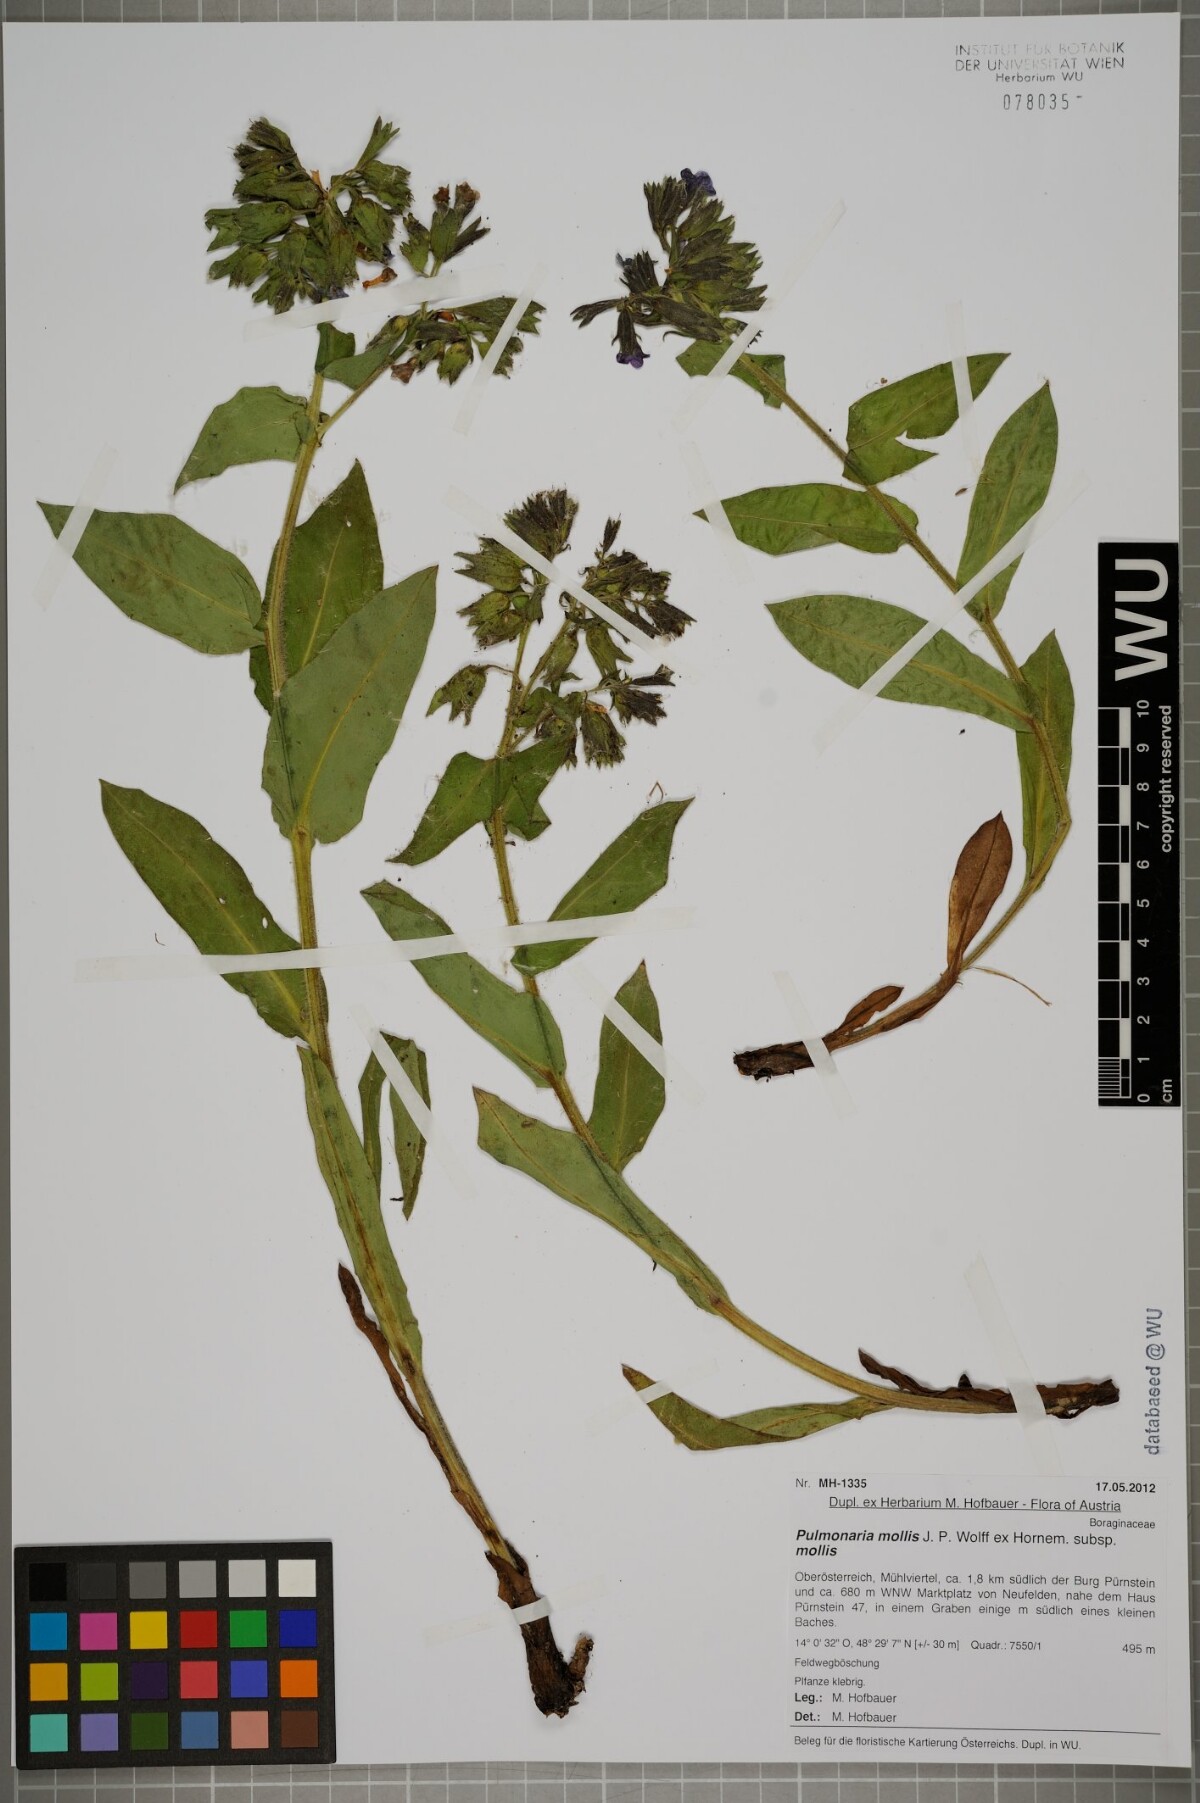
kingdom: Plantae
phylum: Tracheophyta
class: Magnoliopsida
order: Boraginales
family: Boraginaceae
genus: Pulmonaria
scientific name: Pulmonaria mollis
